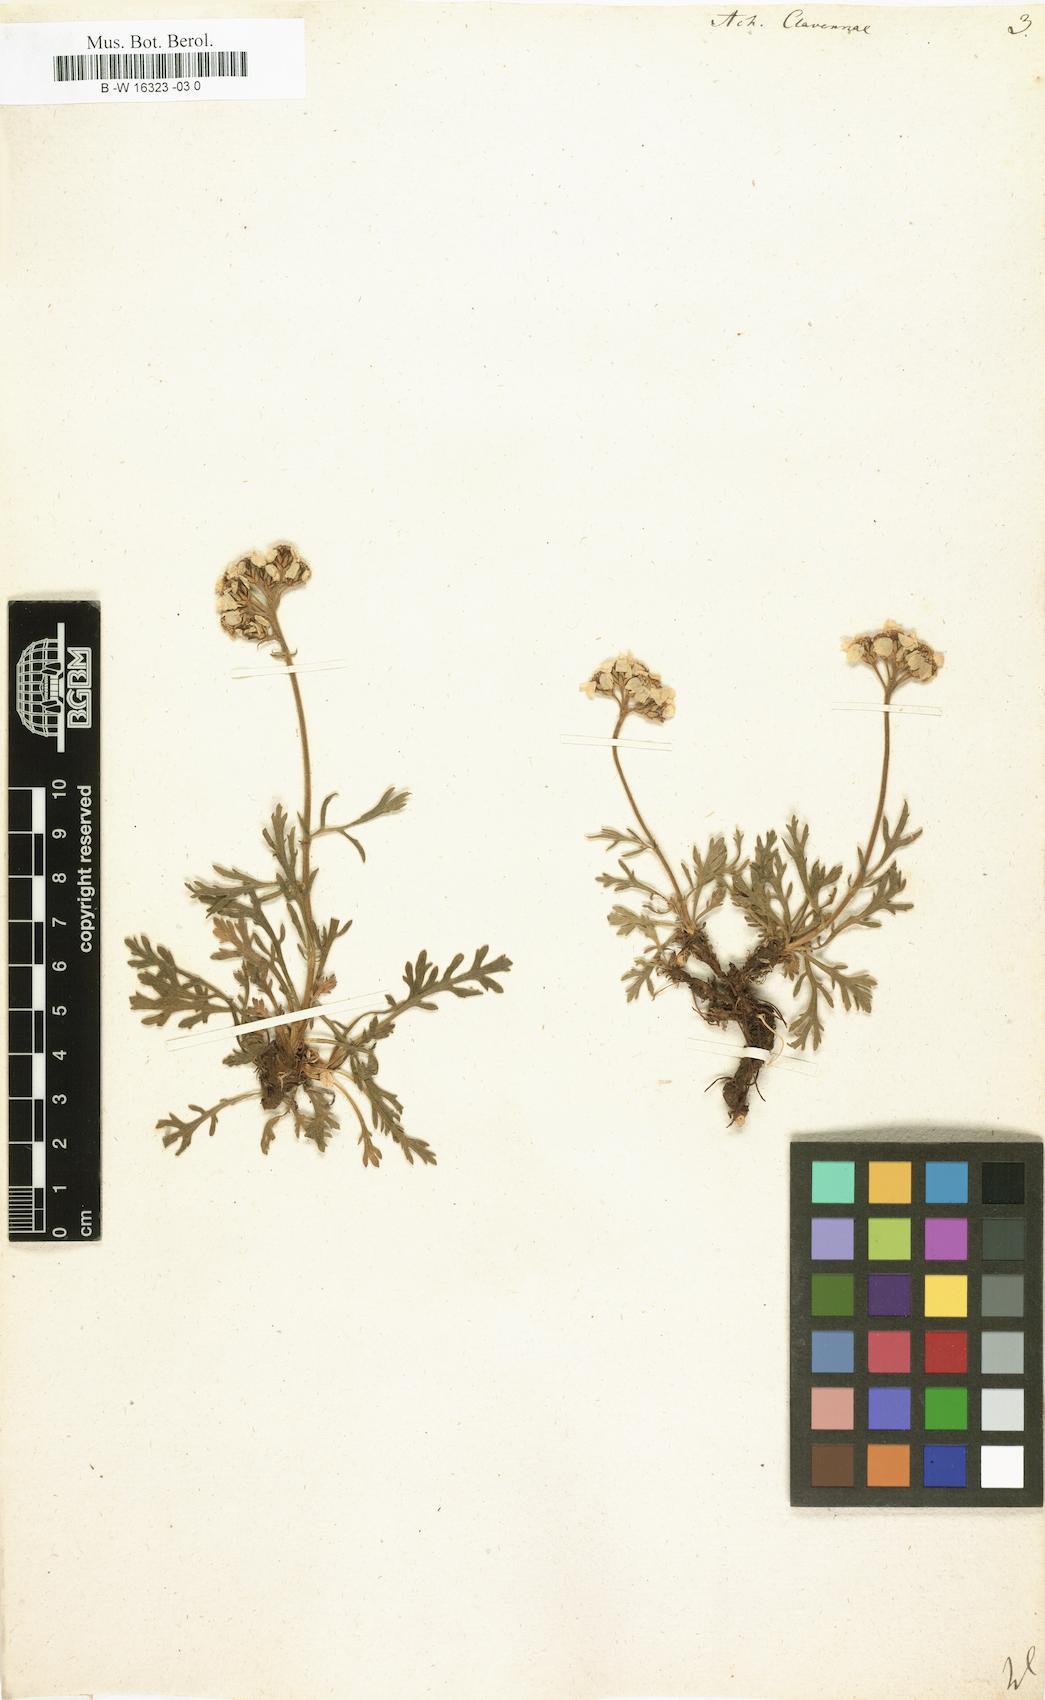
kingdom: Plantae
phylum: Tracheophyta
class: Magnoliopsida
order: Asterales
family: Asteraceae
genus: Achillea
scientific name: Achillea clavennae
